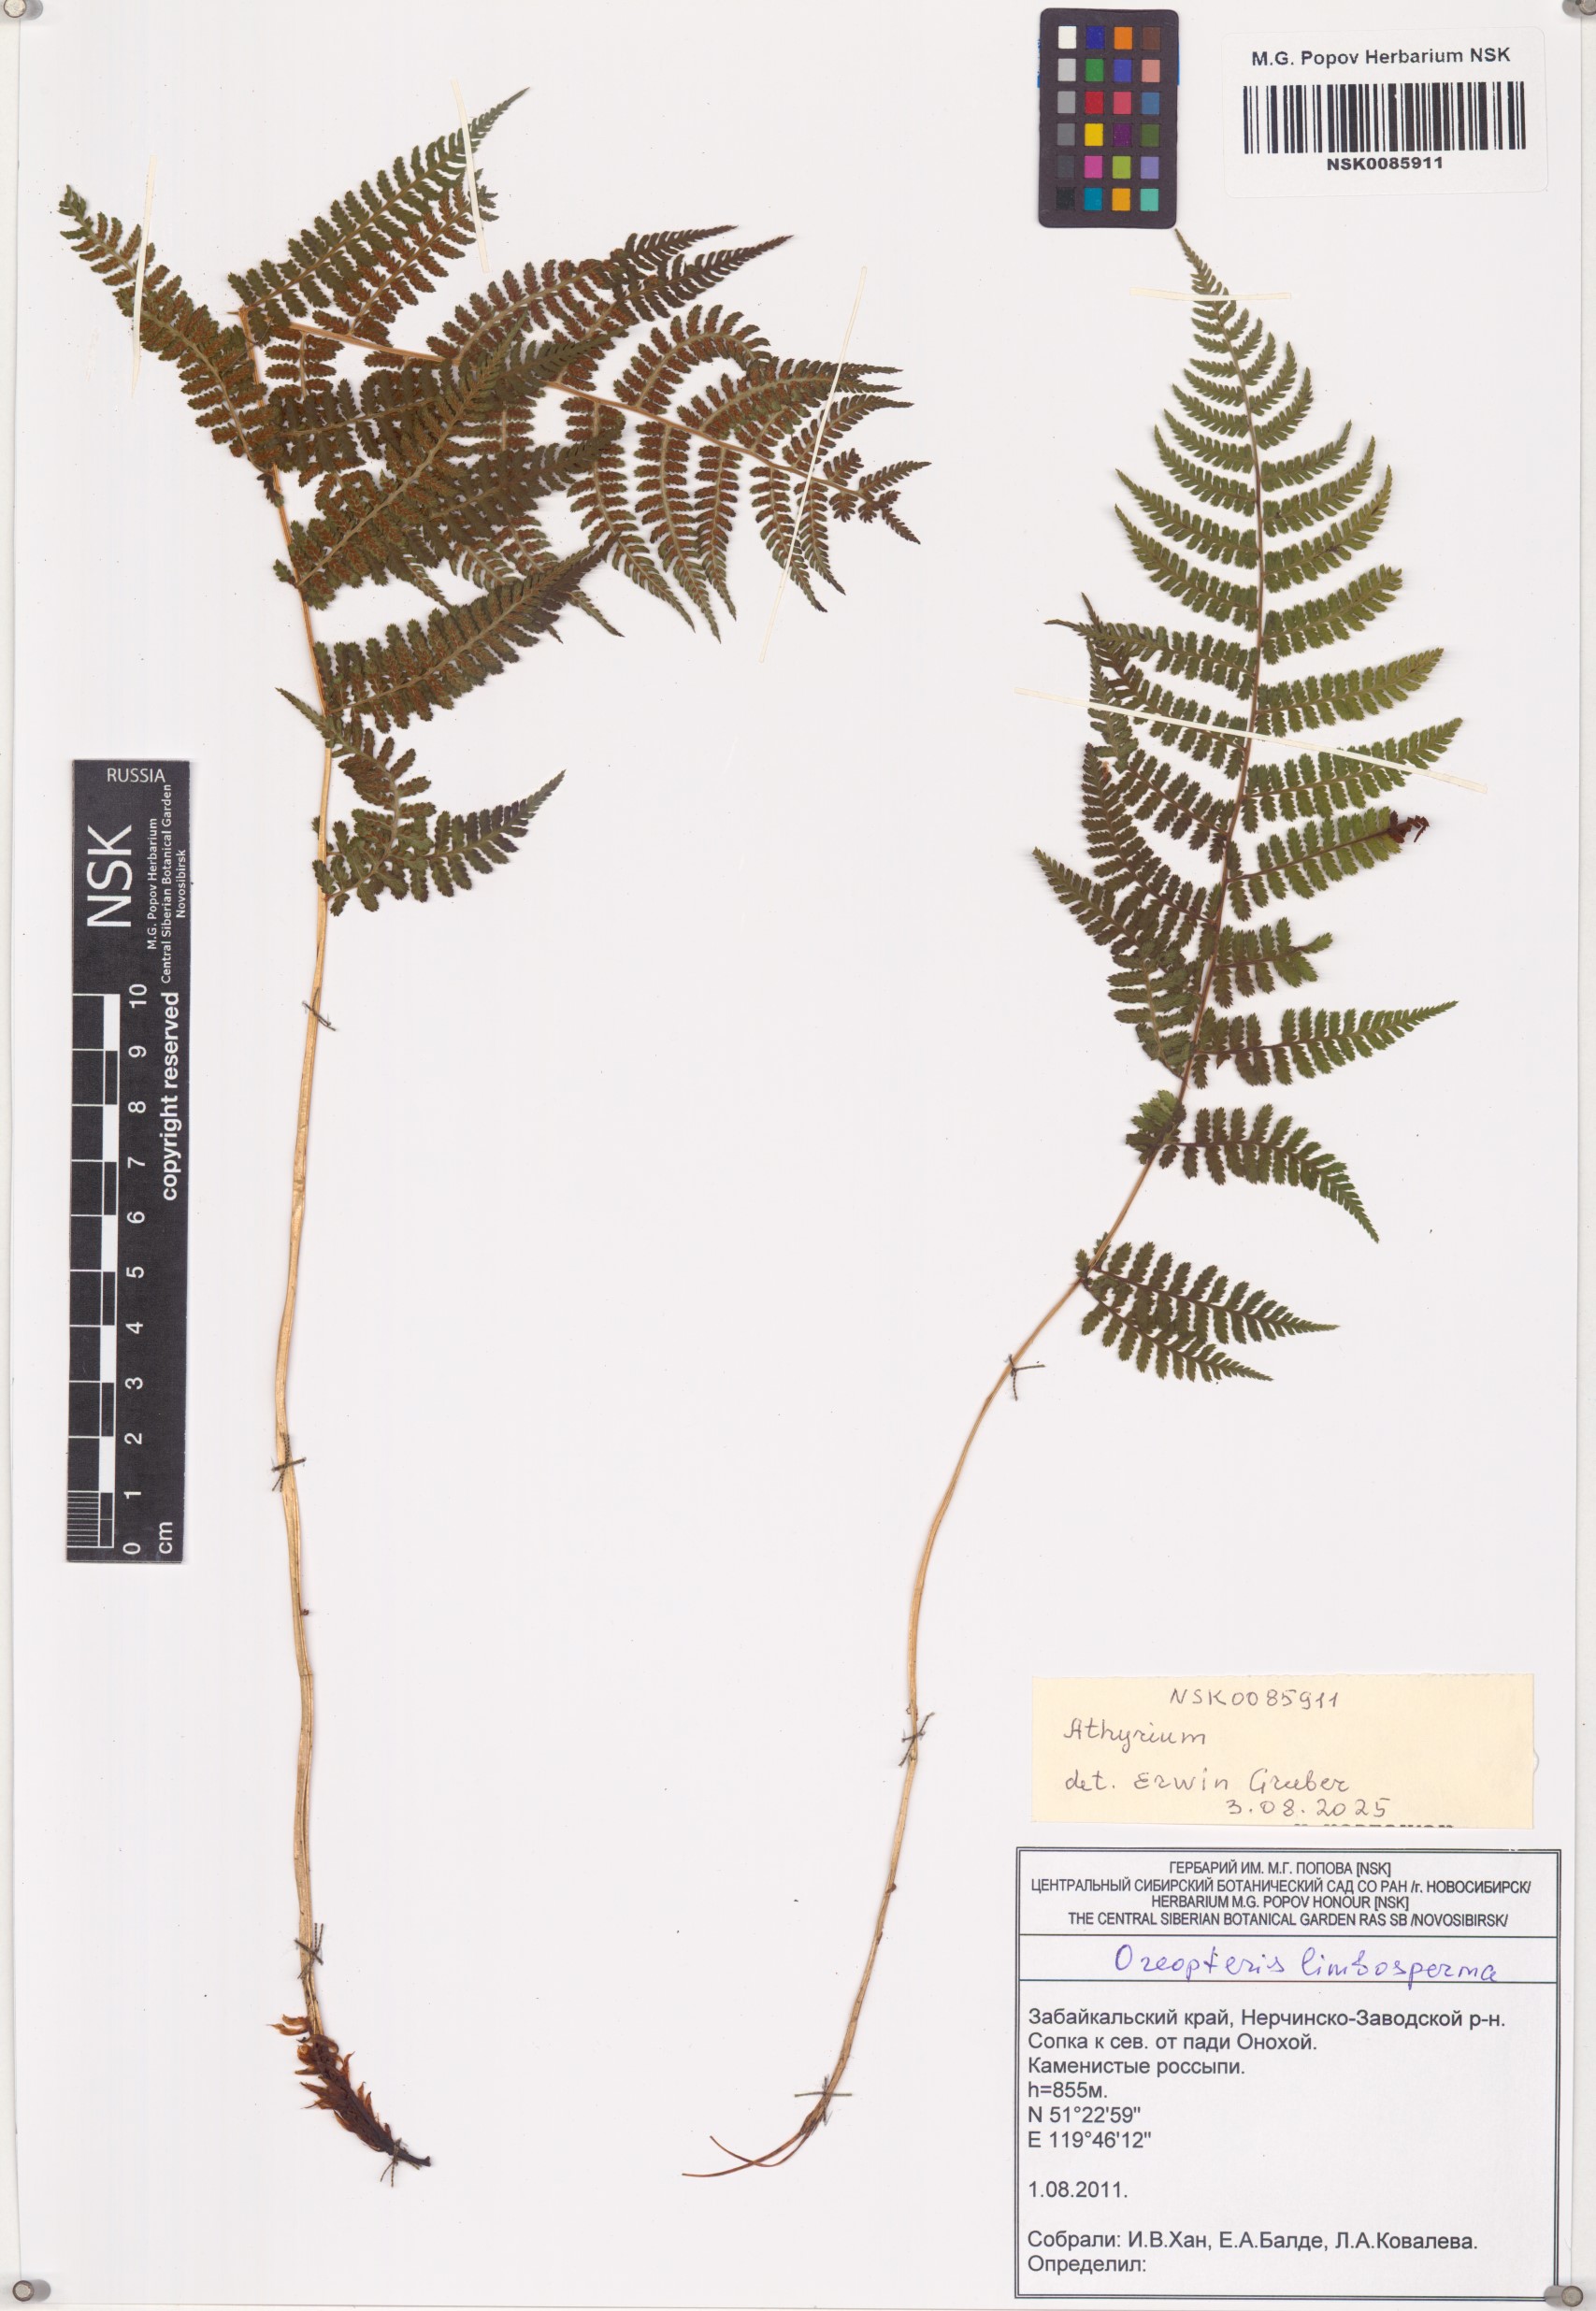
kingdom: Plantae
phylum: Tracheophyta
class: Polypodiopsida
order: Polypodiales
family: Thelypteridaceae
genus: Oreopteris
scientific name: Oreopteris limbosperma
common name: Lemon-scented fern
